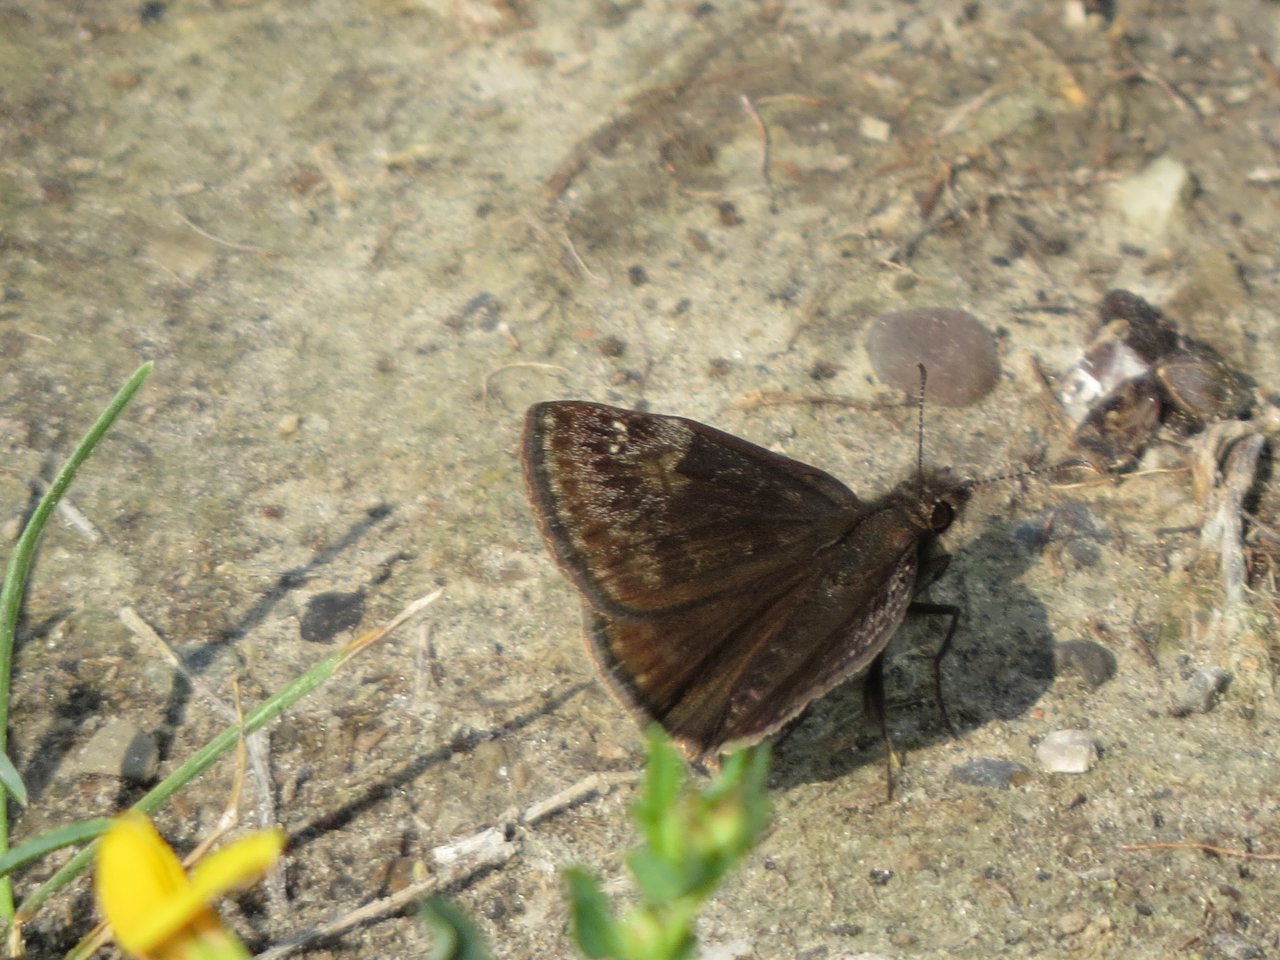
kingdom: Animalia
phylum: Arthropoda
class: Insecta
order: Lepidoptera
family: Hesperiidae
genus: Gesta
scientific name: Gesta
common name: Wild Indigo Duskywing
